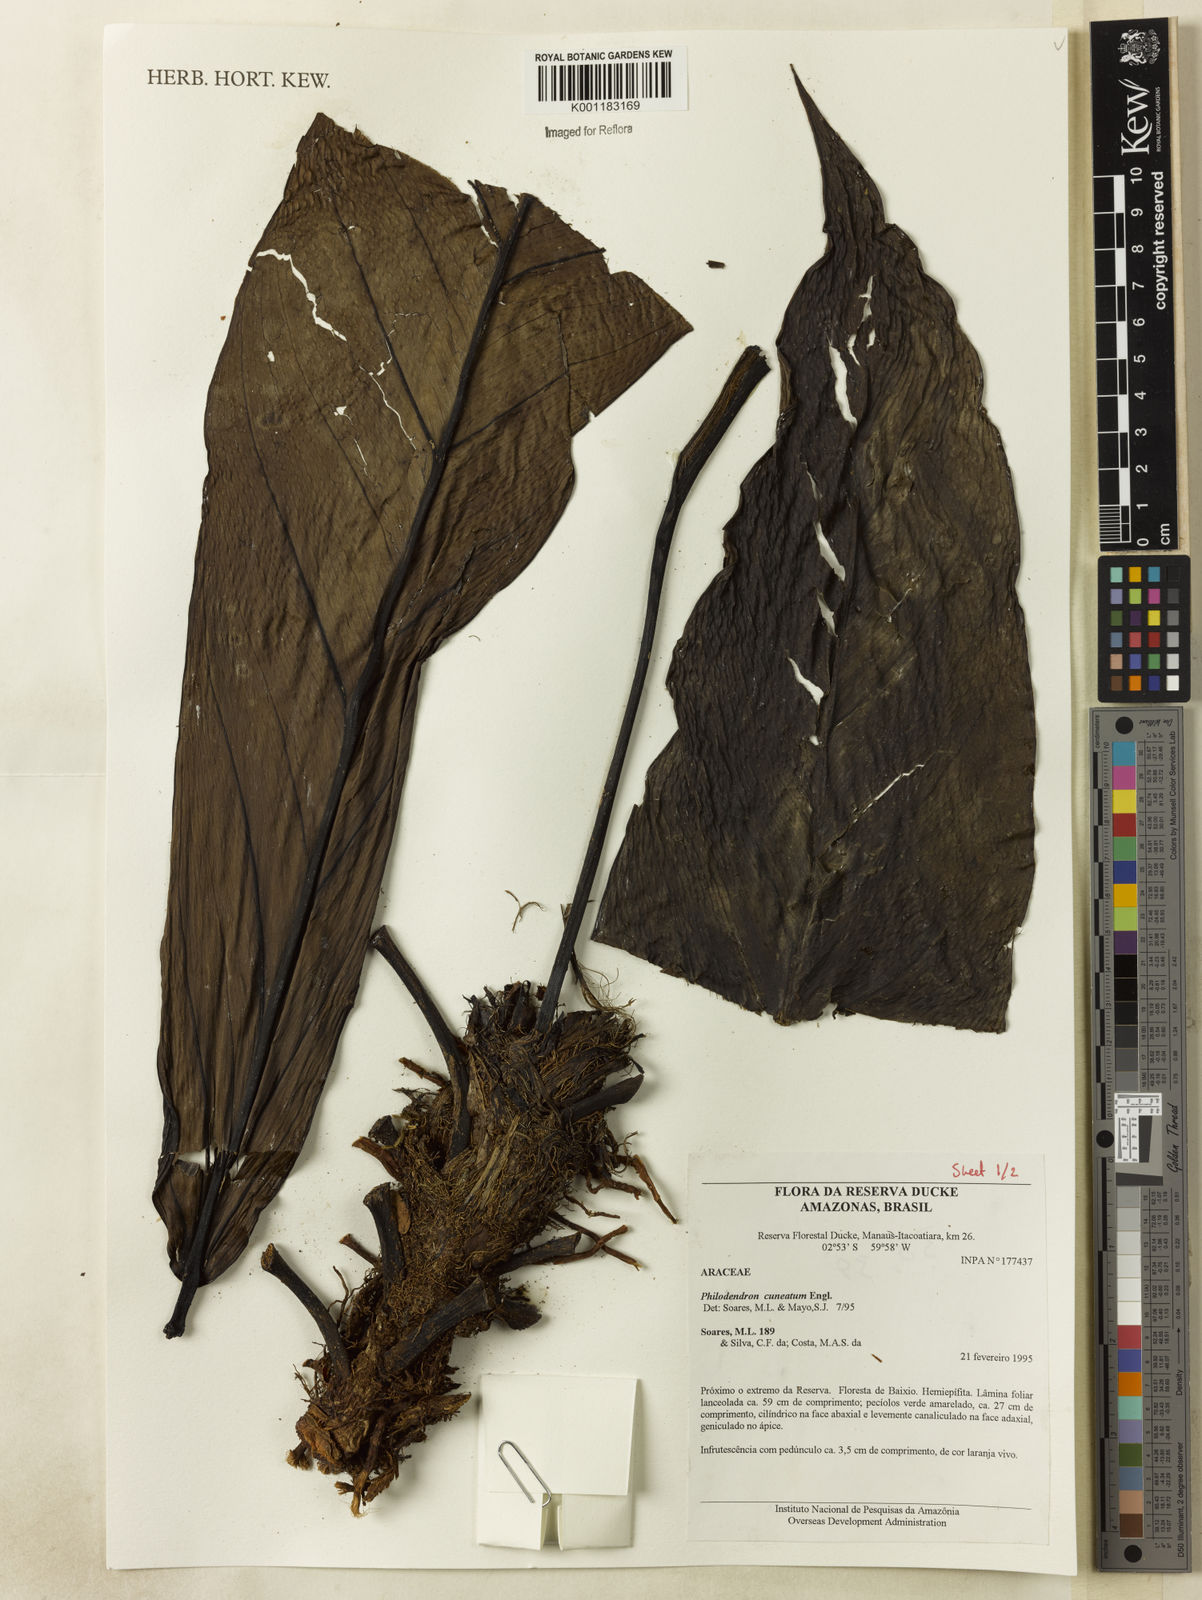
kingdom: Plantae
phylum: Tracheophyta
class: Liliopsida
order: Alismatales
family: Araceae
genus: Philodendron
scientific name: Philodendron cuneatum
